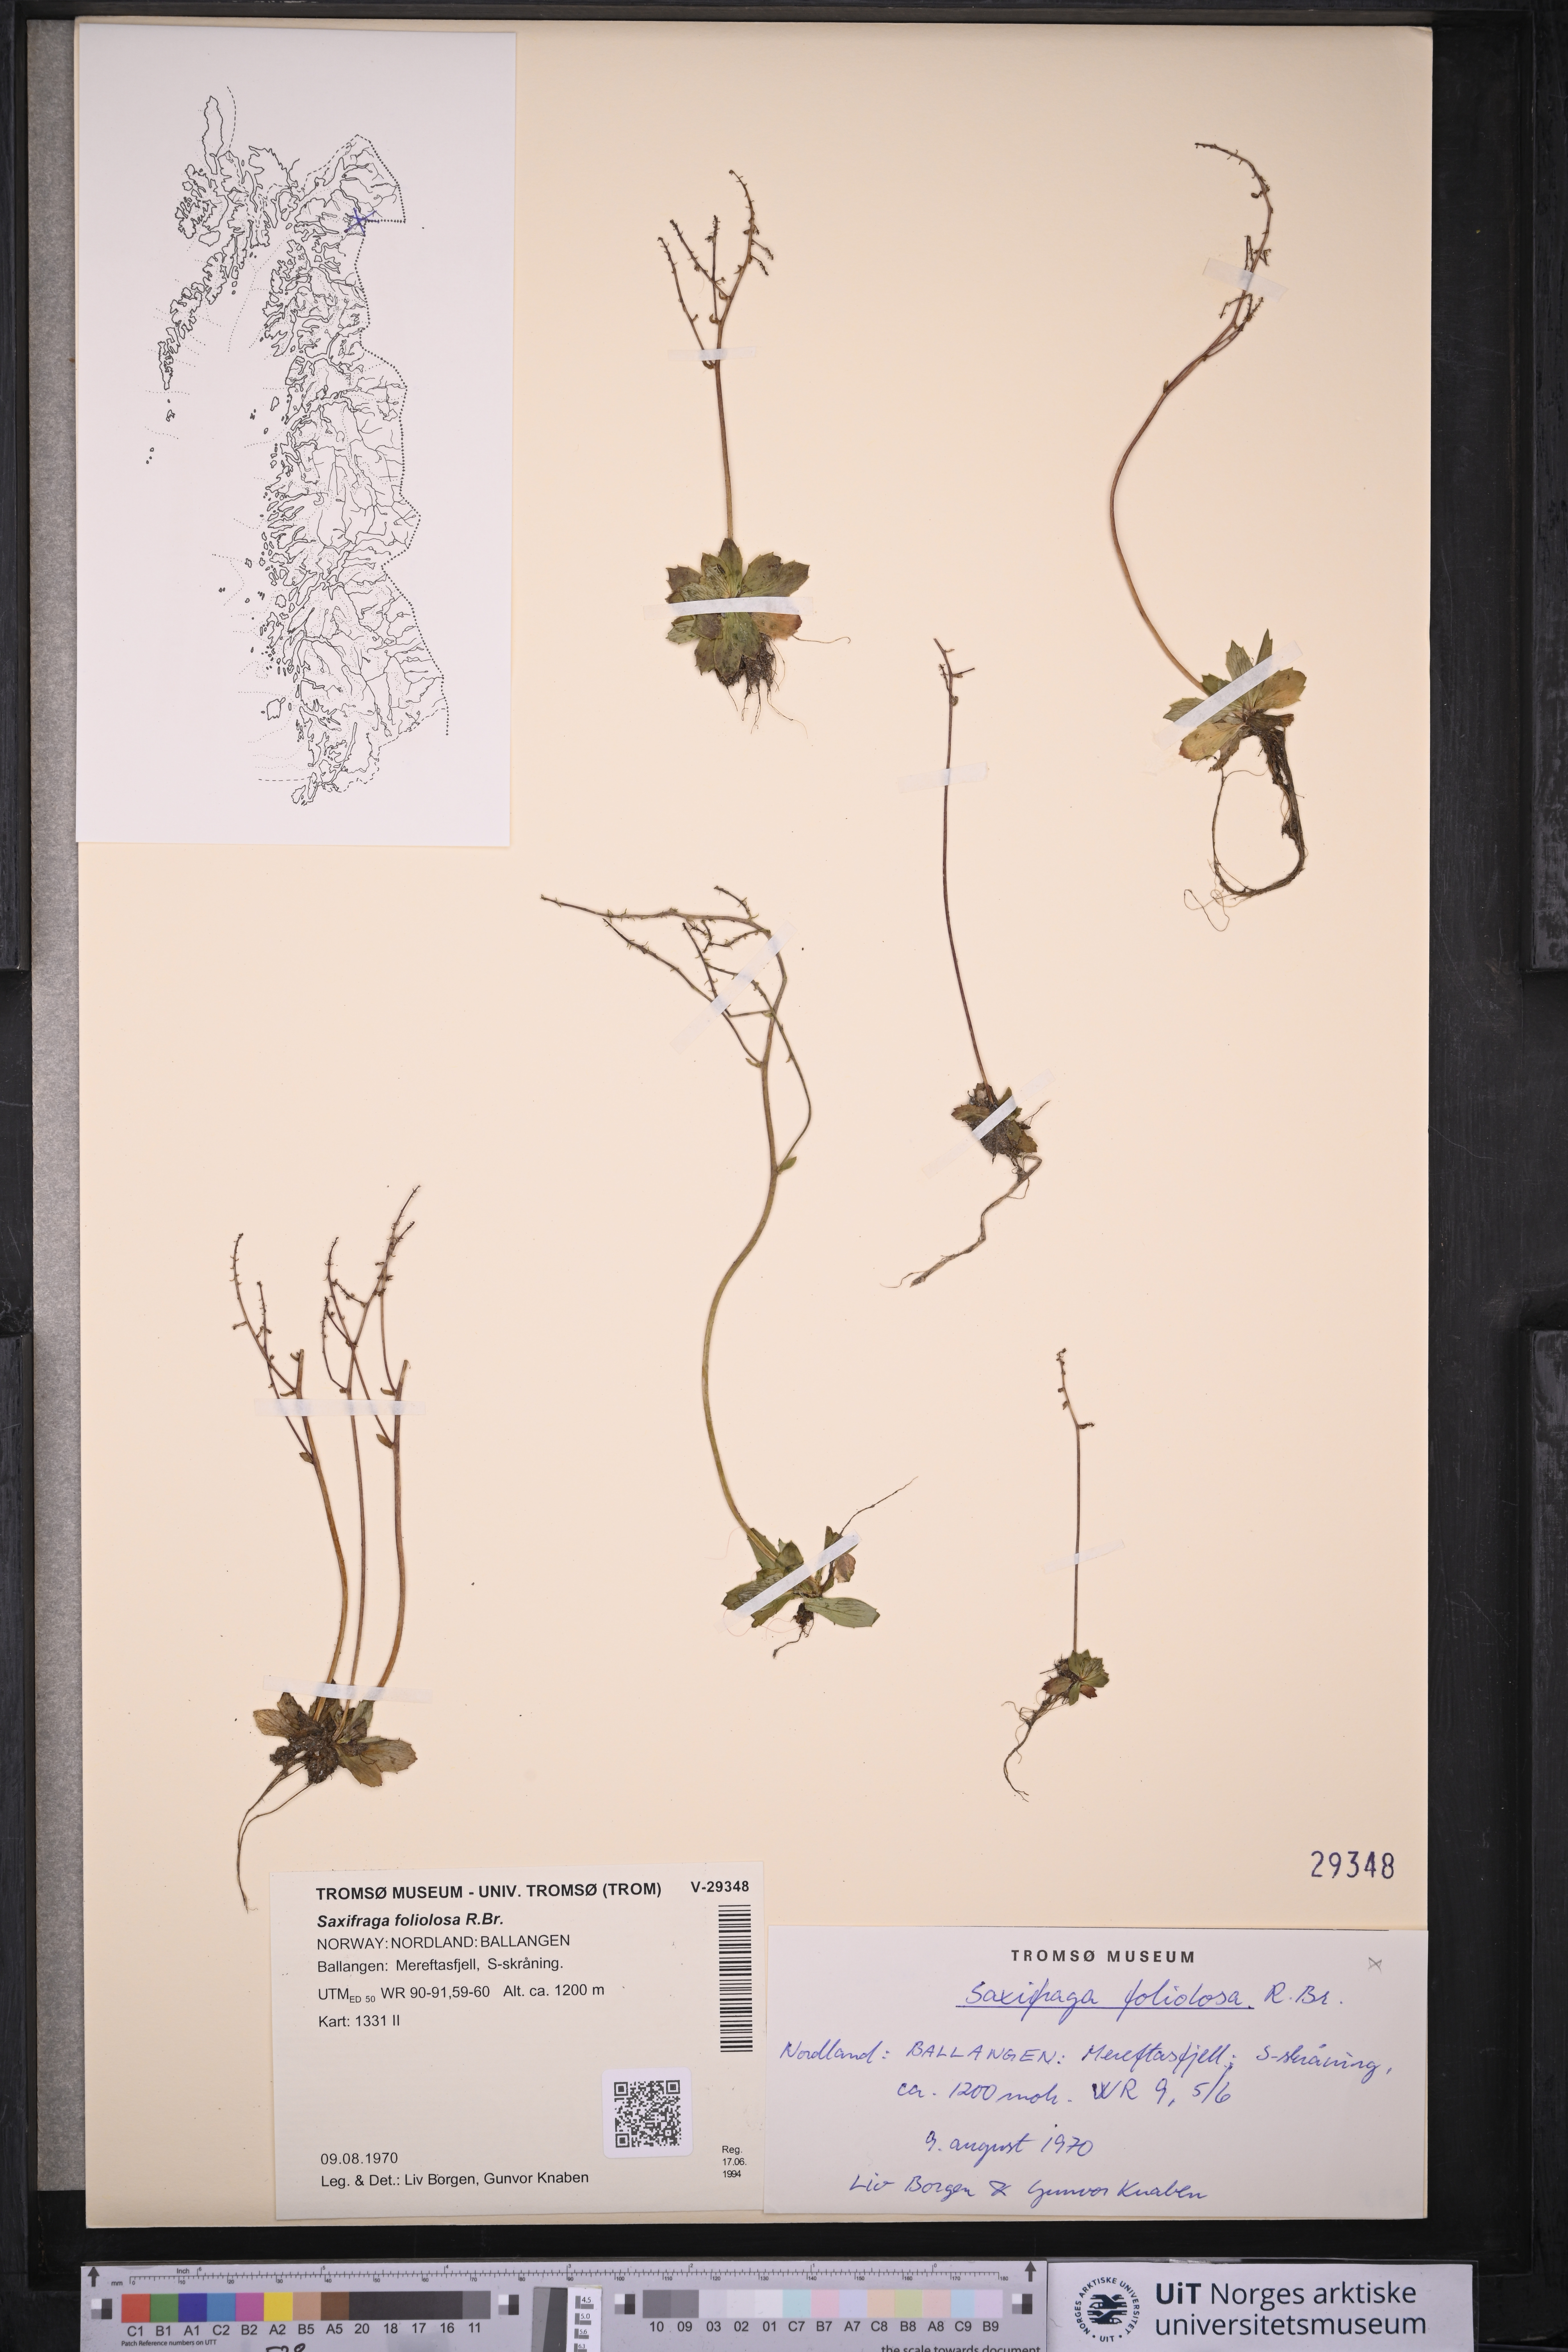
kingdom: Plantae
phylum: Tracheophyta
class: Magnoliopsida
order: Saxifragales
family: Saxifragaceae
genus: Micranthes
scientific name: Micranthes foliolosa
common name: Leafystem saxifrage
